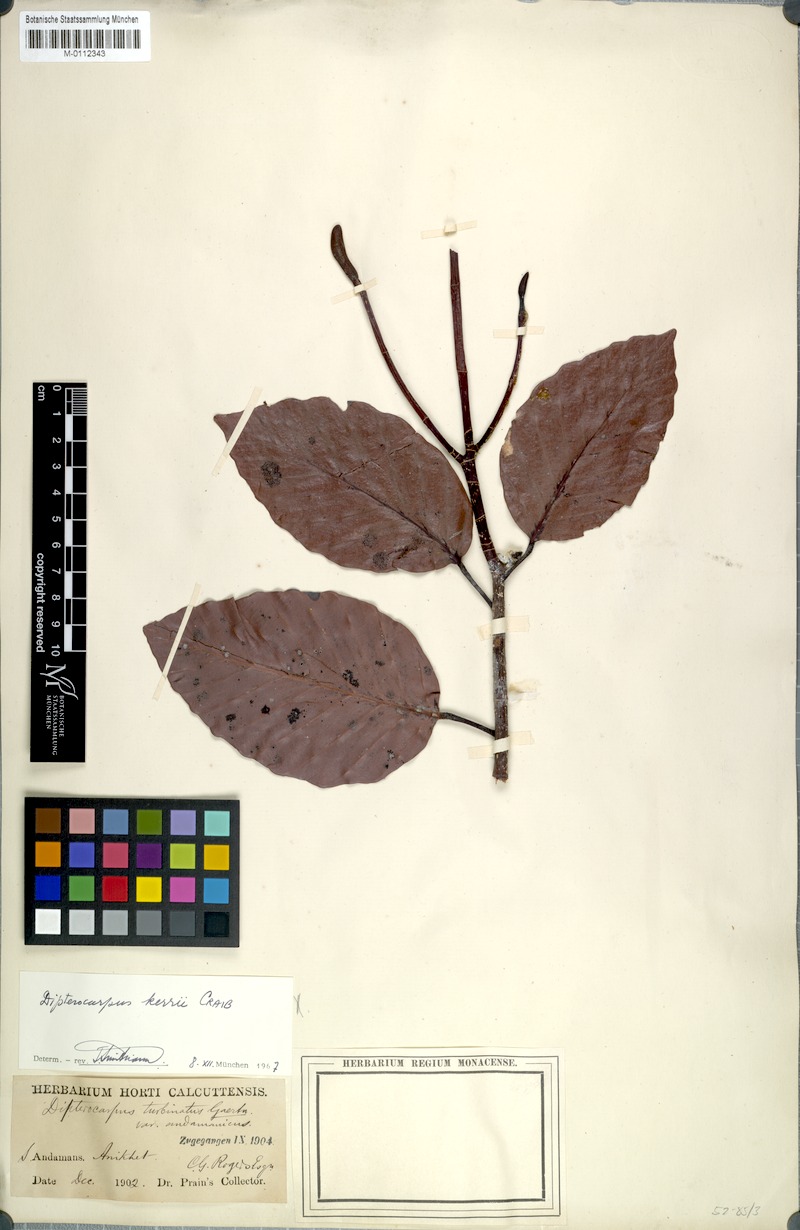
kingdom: Plantae
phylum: Tracheophyta
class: Magnoliopsida
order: Malvales
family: Dipterocarpaceae
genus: Dipterocarpus
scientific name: Dipterocarpus kerrii
